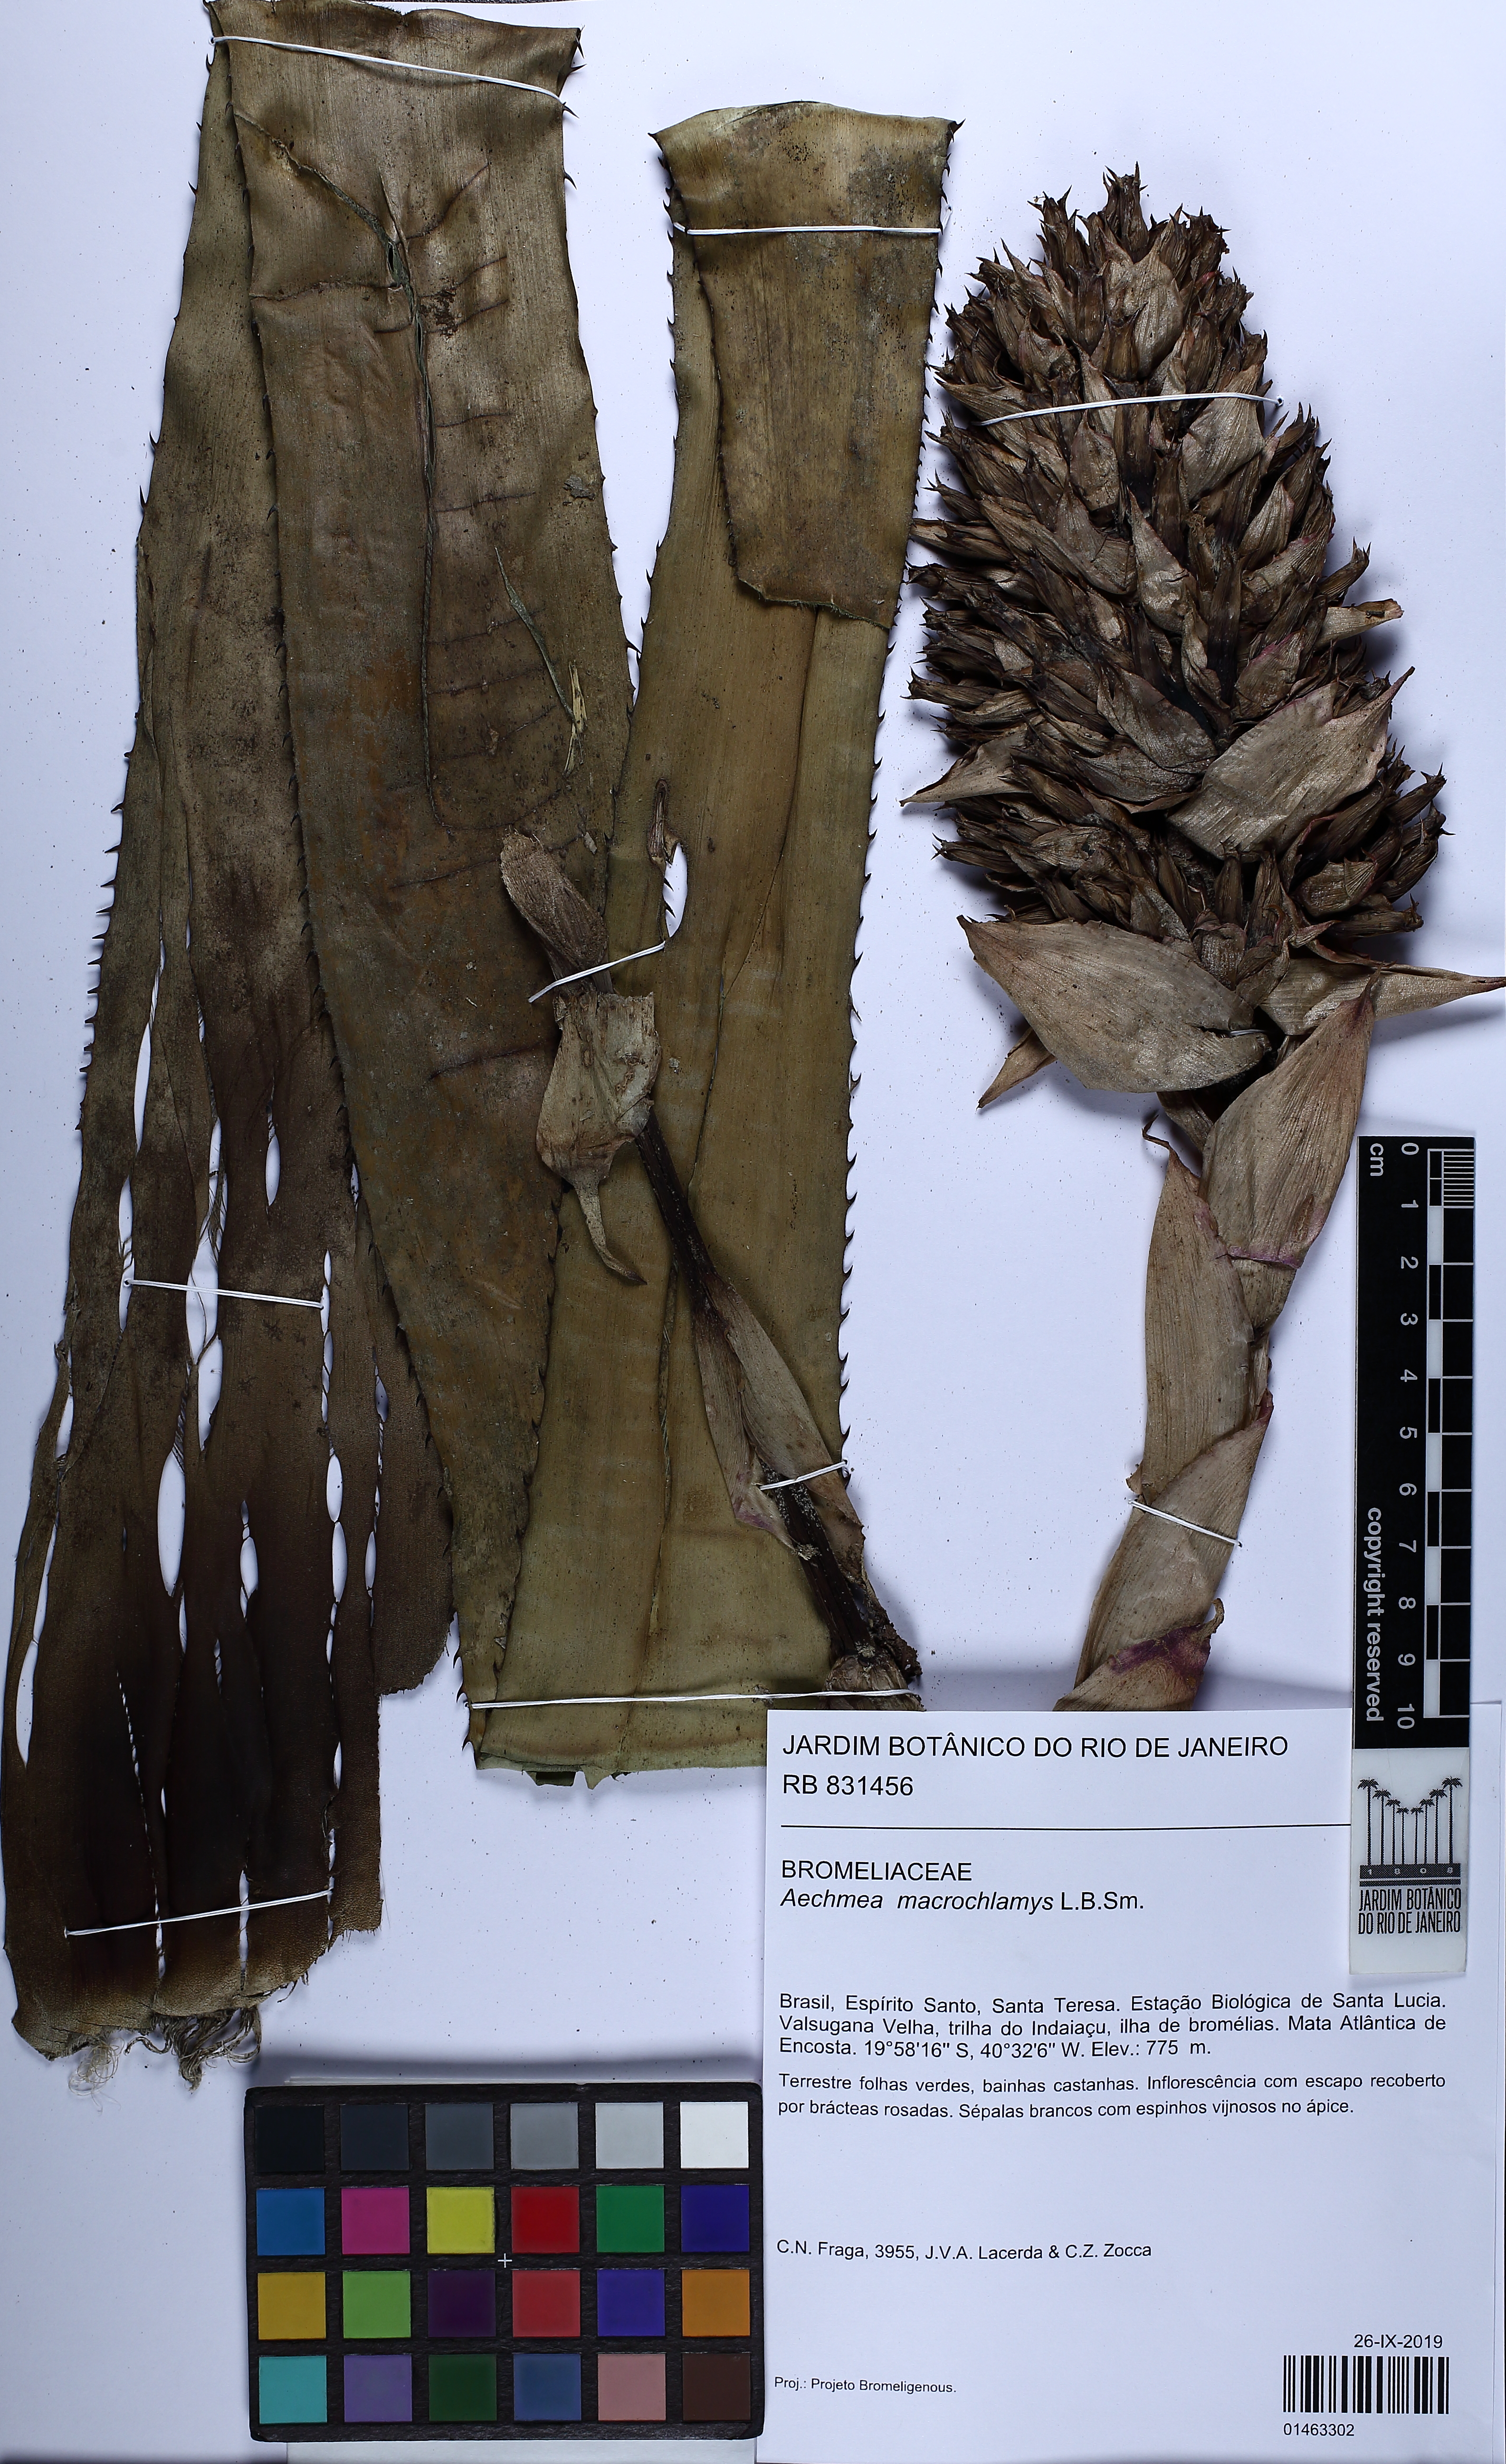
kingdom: Plantae
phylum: Tracheophyta
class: Liliopsida
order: Poales
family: Bromeliaceae
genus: Aechmea
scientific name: Aechmea macrochlamys
